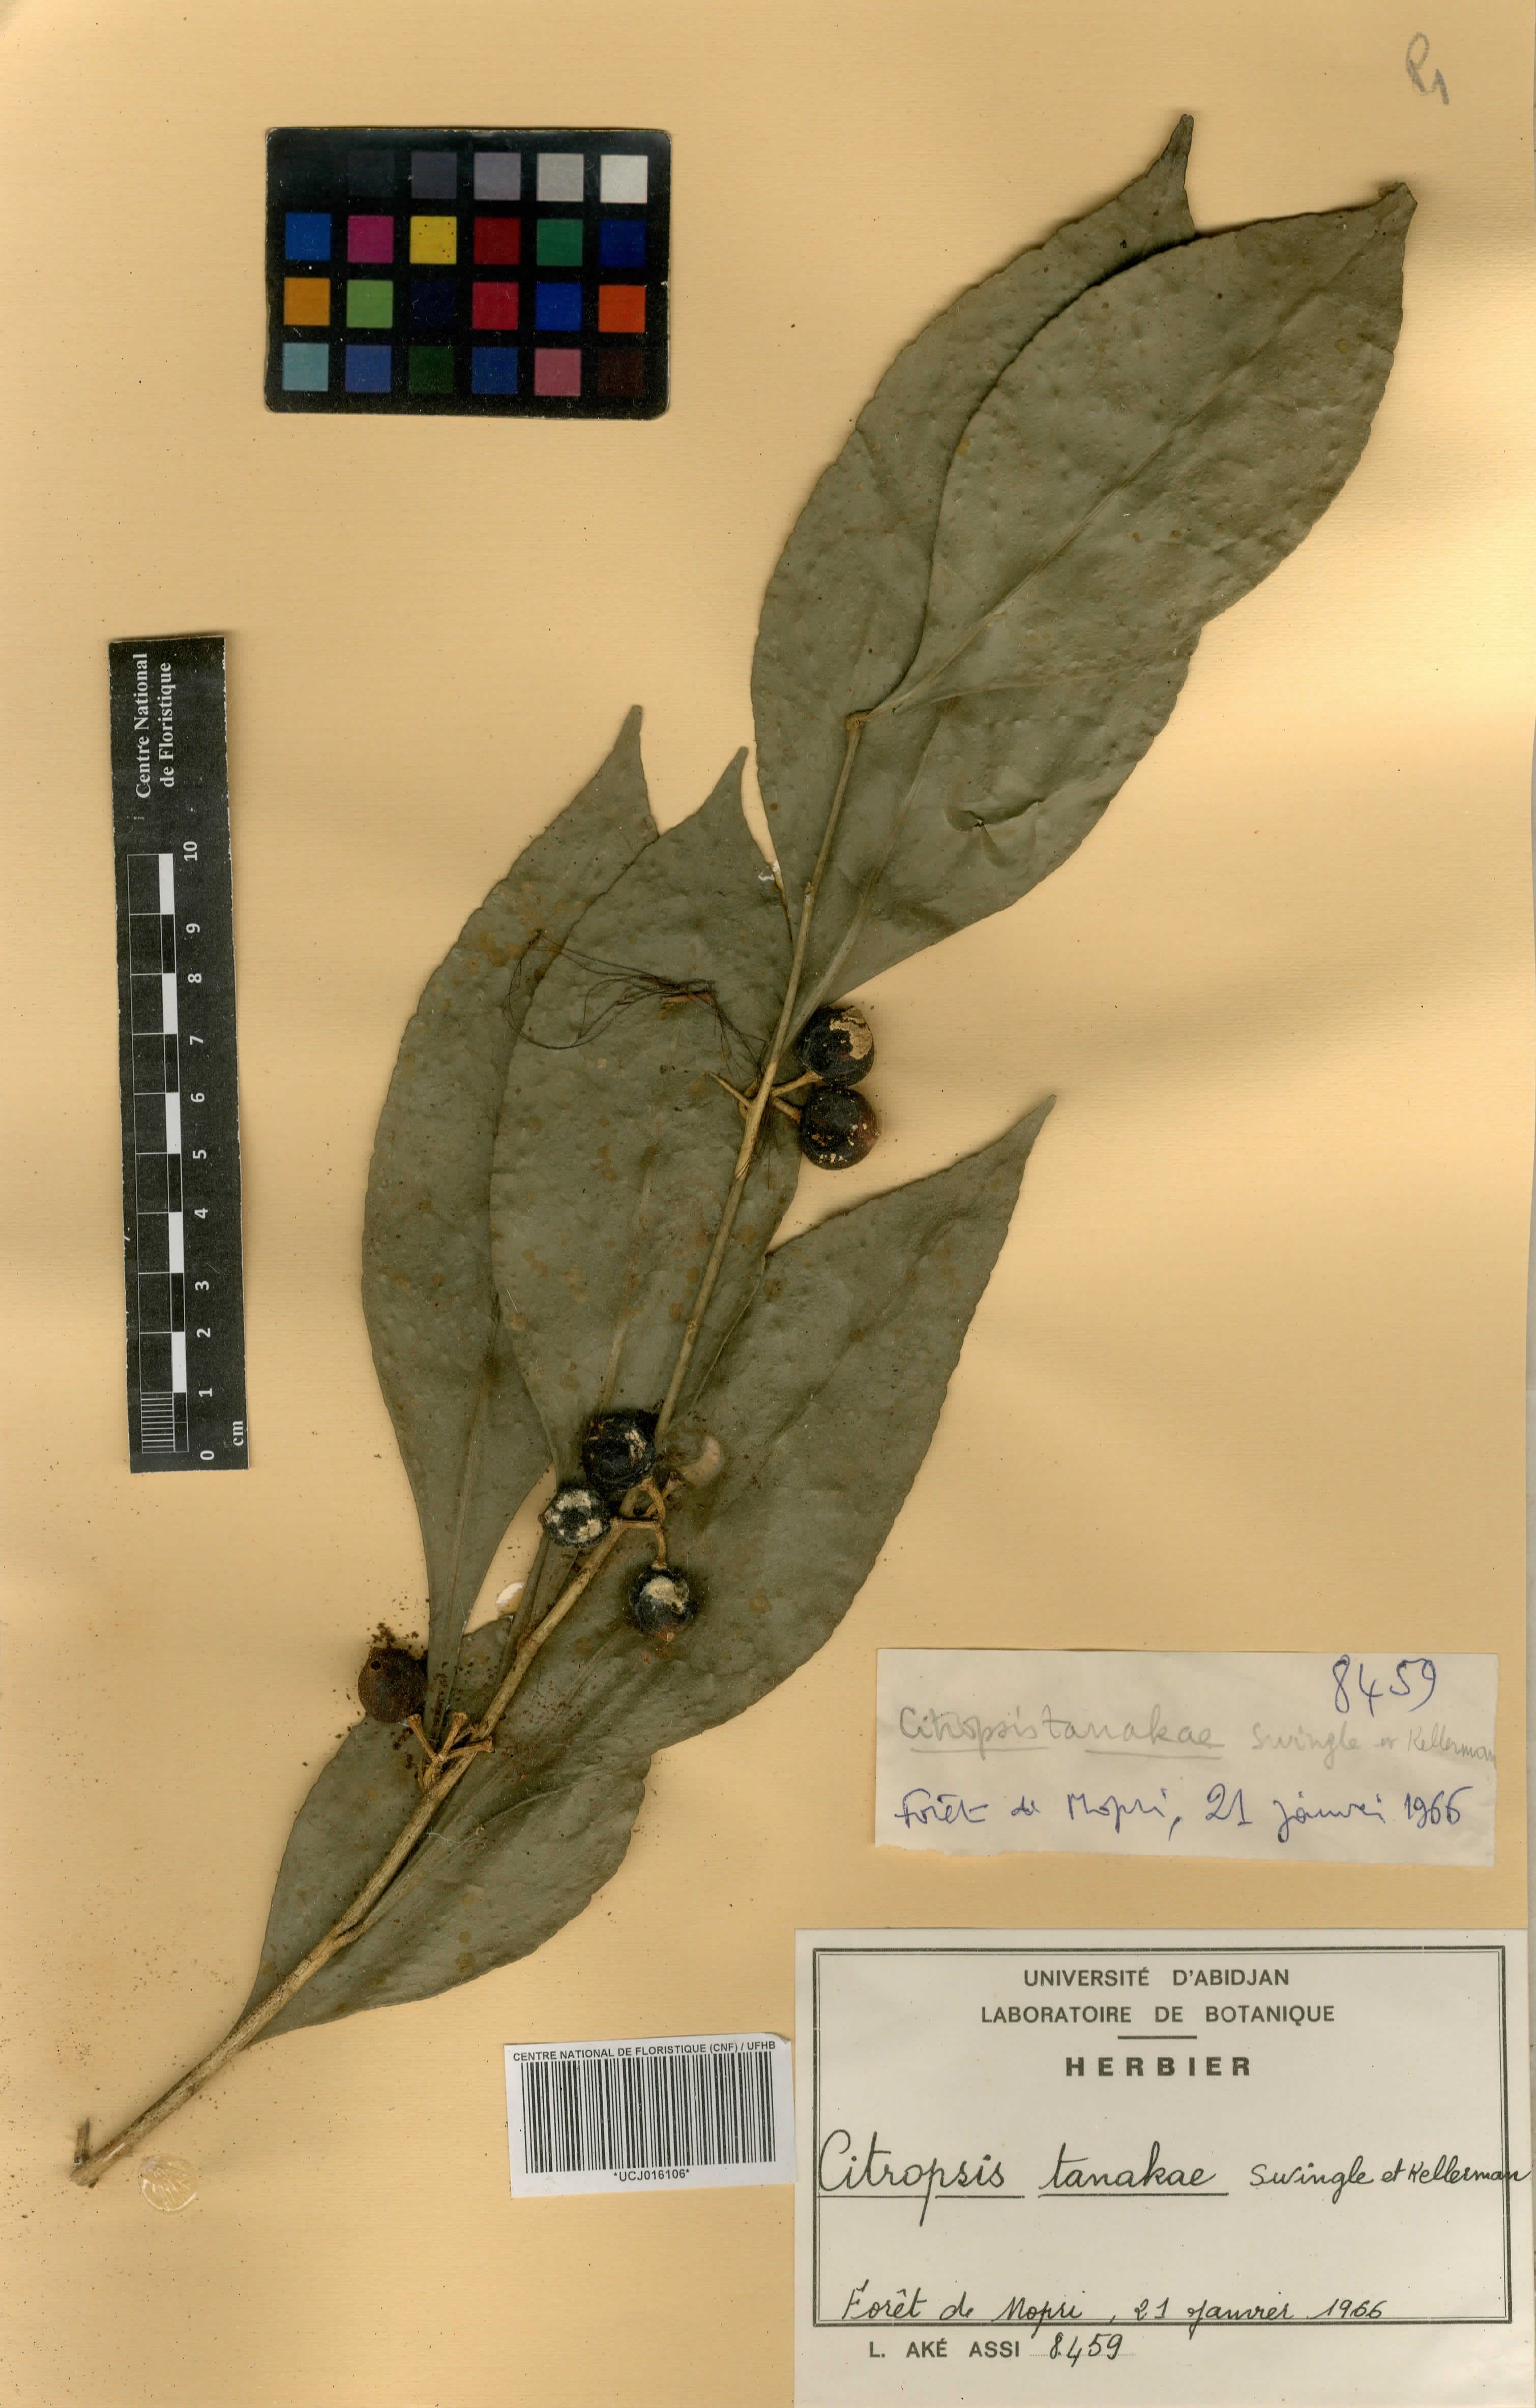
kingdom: Plantae
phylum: Tracheophyta
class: Magnoliopsida
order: Sapindales
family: Rutaceae
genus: Citropsis
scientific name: Citropsis gabunensis
